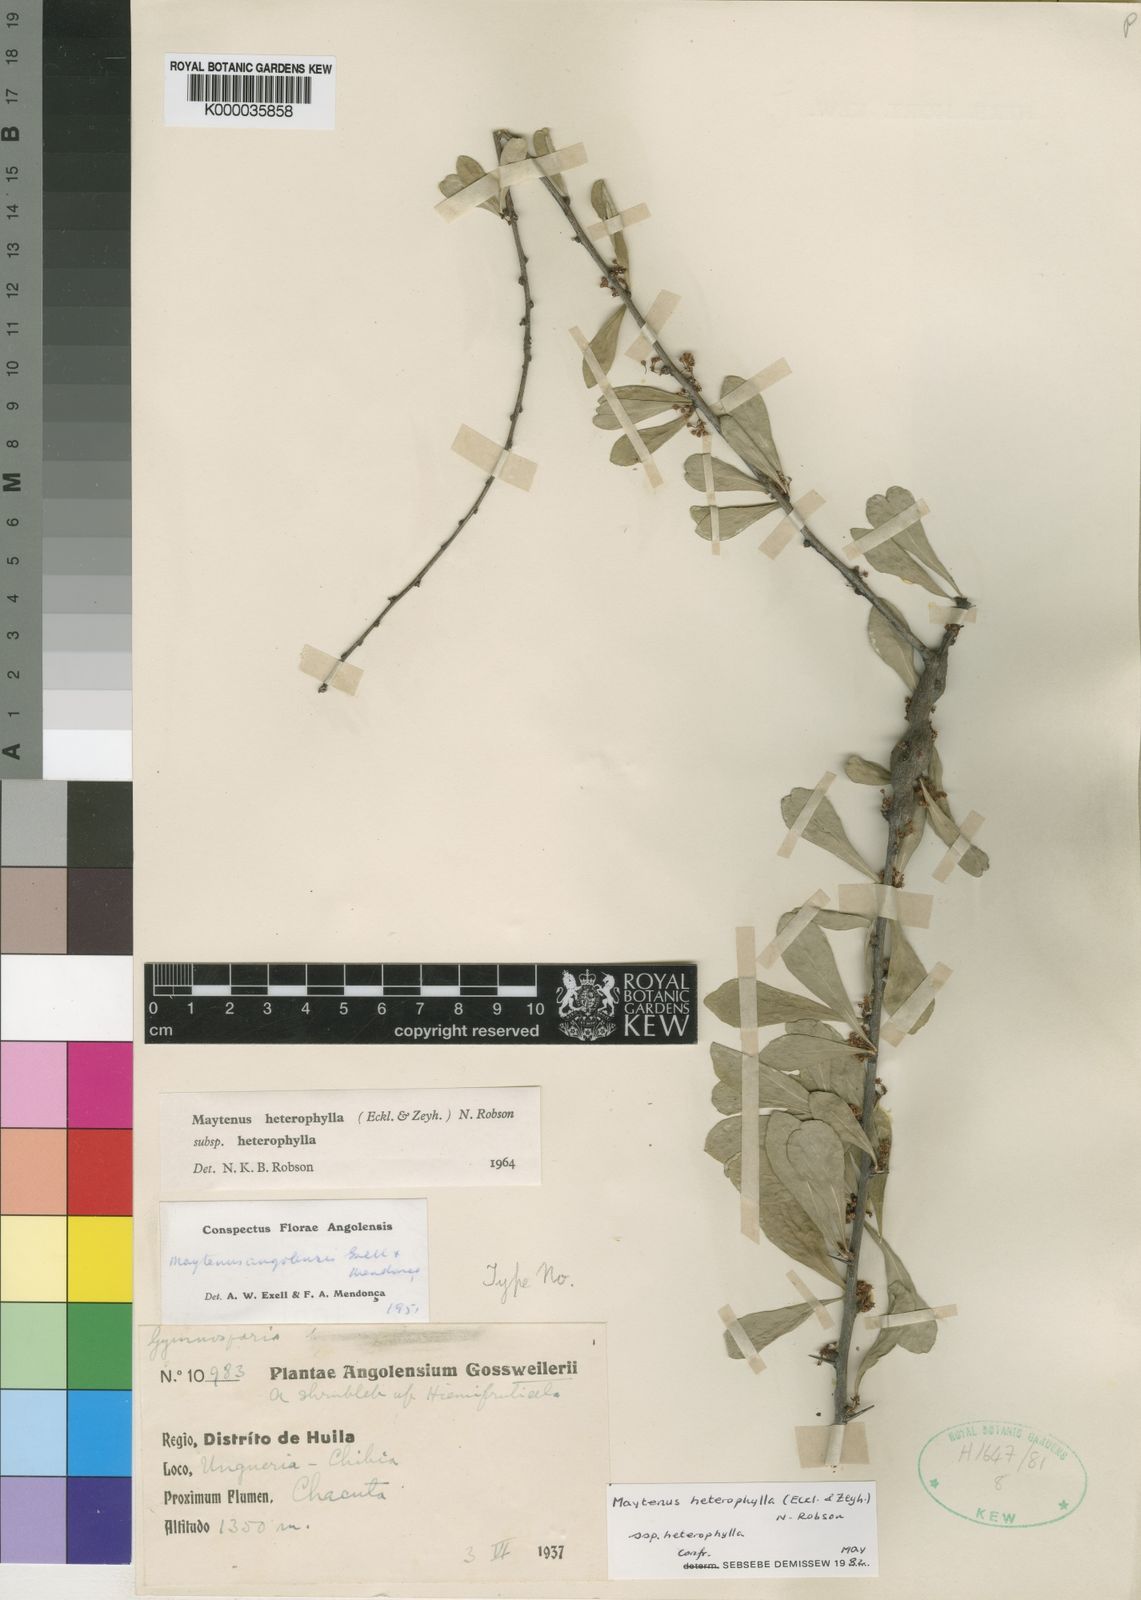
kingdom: Plantae
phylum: Tracheophyta
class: Magnoliopsida
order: Celastrales
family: Celastraceae
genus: Gymnosporia
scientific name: Gymnosporia heterophylla
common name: Angle-stem spikethorn
